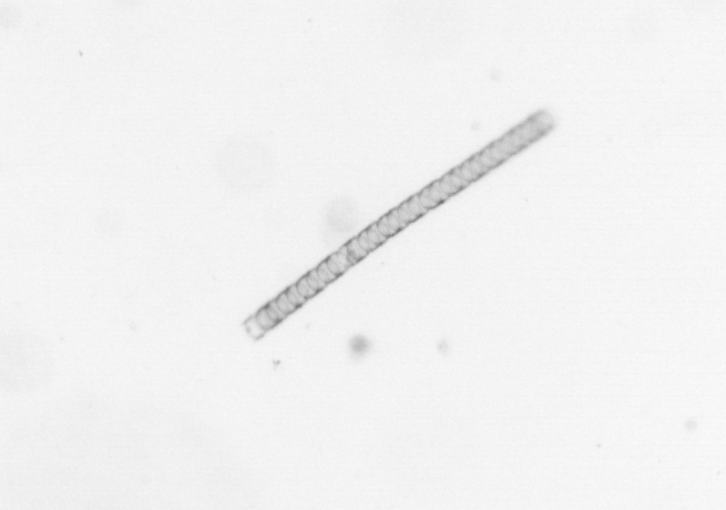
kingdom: Chromista
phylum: Ochrophyta
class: Bacillariophyceae
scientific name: Bacillariophyceae
